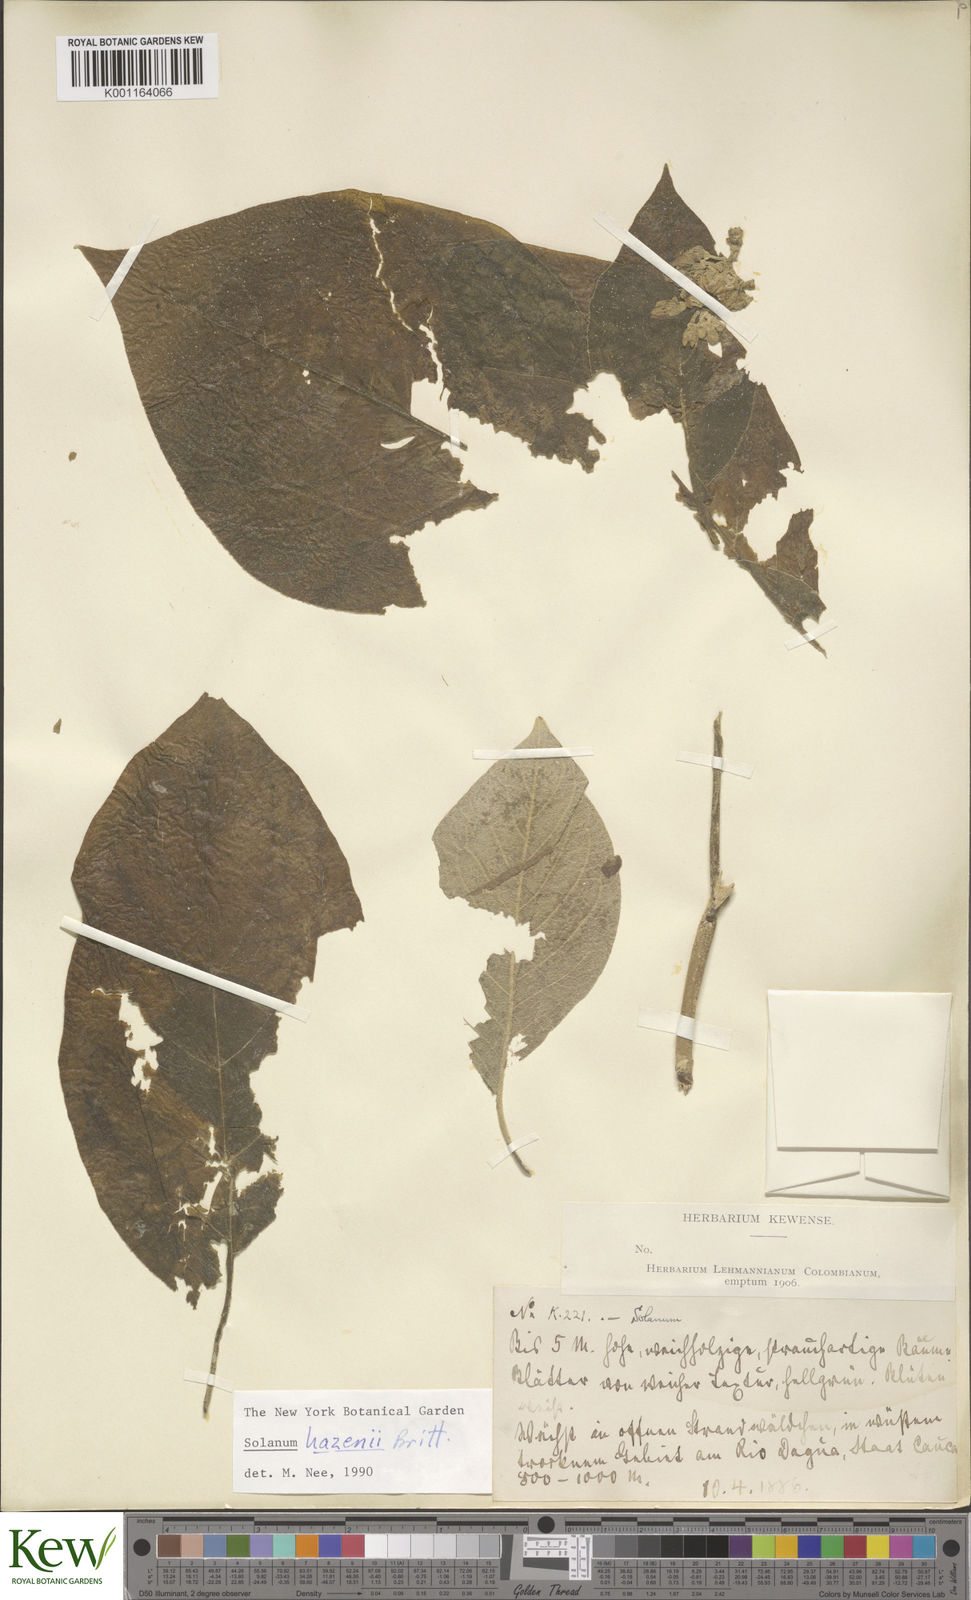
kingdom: Plantae
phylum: Tracheophyta
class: Magnoliopsida
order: Solanales
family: Solanaceae
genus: Solanum
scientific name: Solanum hazenii
